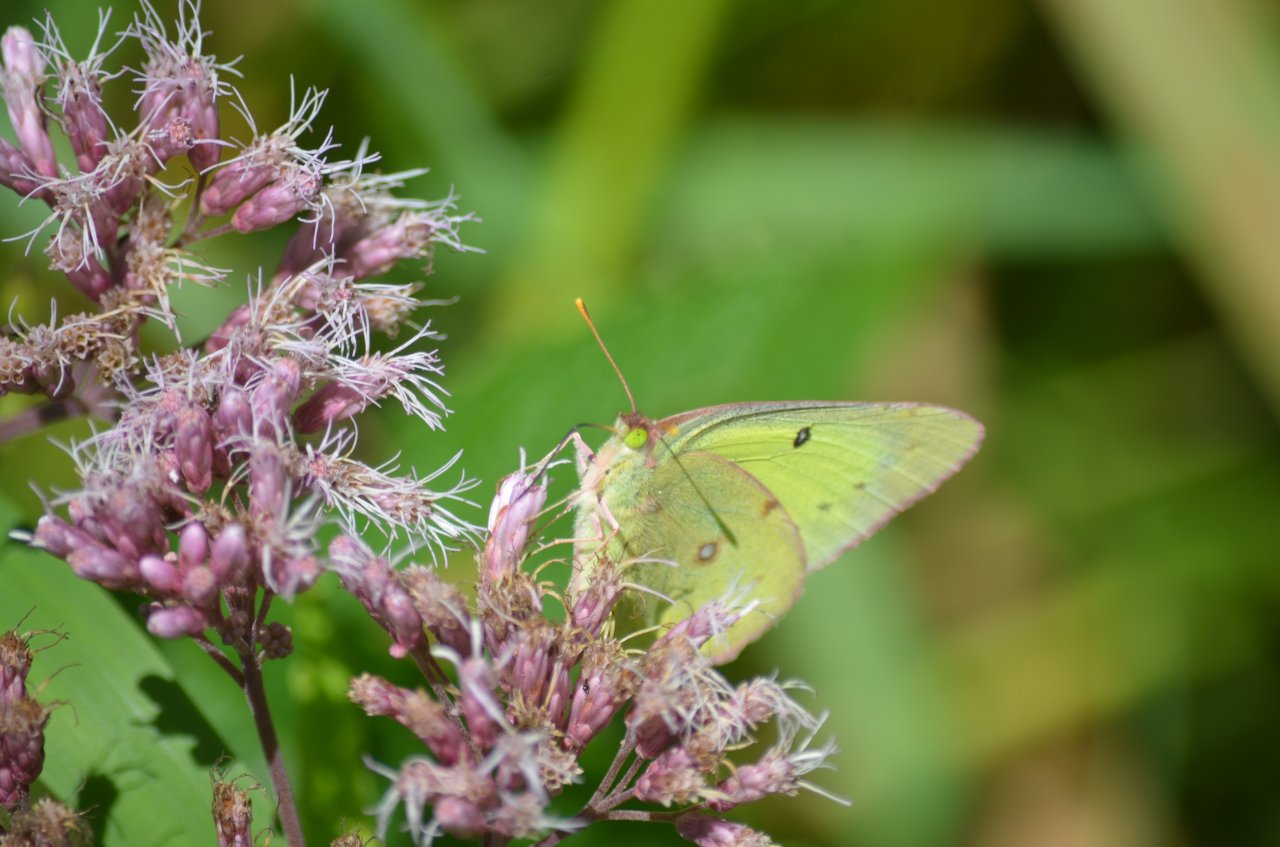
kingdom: Animalia
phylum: Arthropoda
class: Insecta
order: Lepidoptera
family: Pieridae
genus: Colias
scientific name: Colias philodice
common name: Clouded Sulphur
